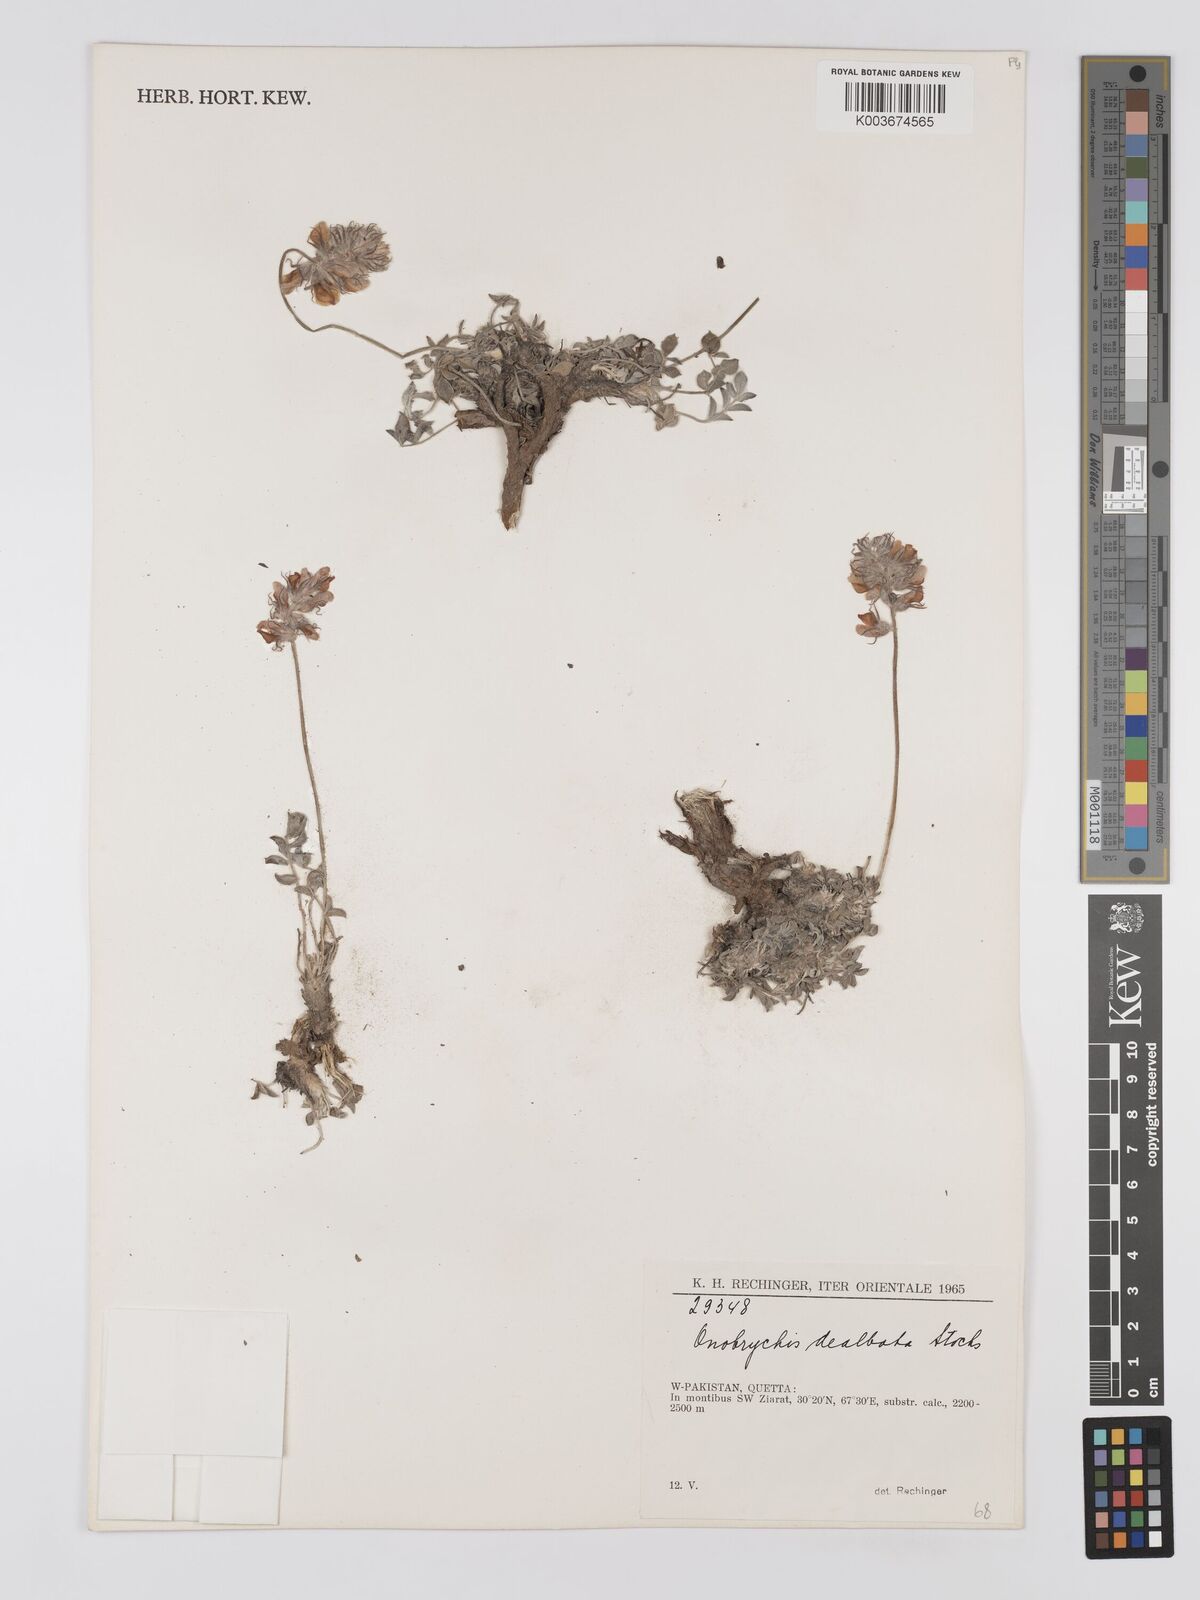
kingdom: Plantae
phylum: Tracheophyta
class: Magnoliopsida
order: Fabales
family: Fabaceae
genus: Onobrychis
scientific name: Onobrychis dealbata
